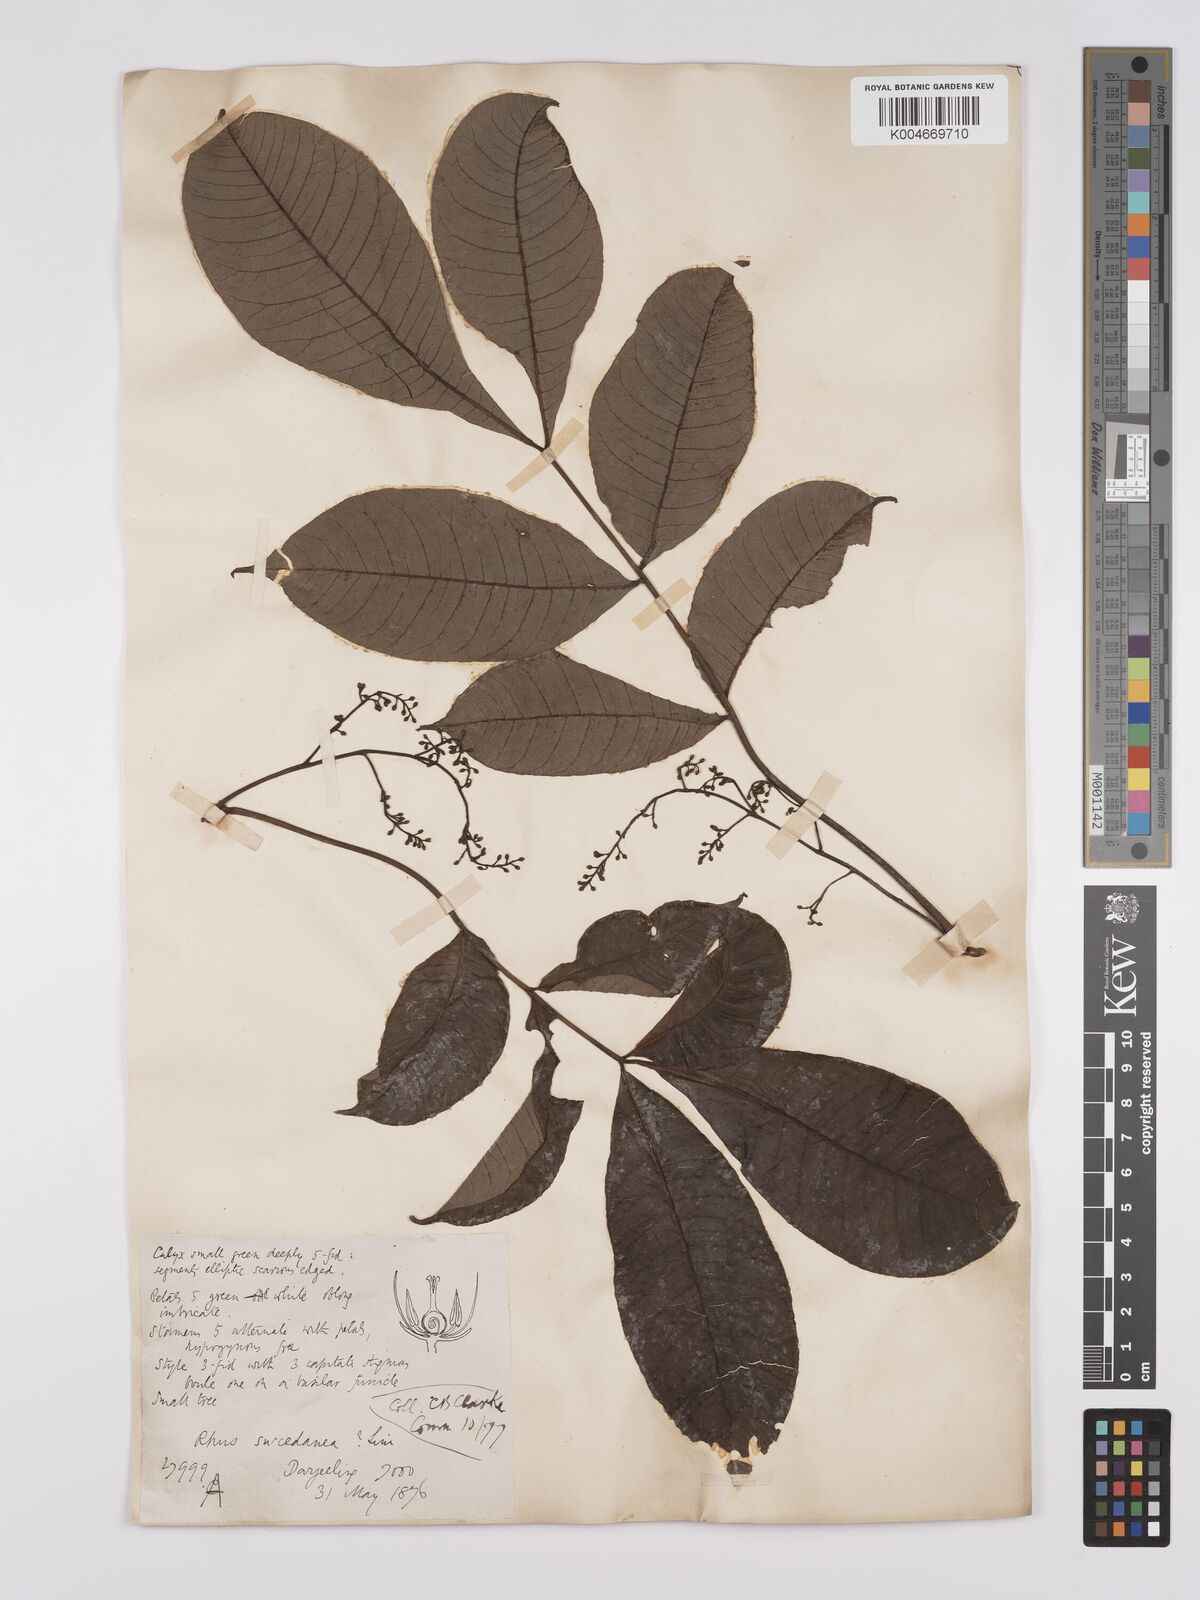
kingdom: Plantae
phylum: Tracheophyta
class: Magnoliopsida
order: Sapindales
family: Anacardiaceae
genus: Toxicodendron
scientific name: Toxicodendron succedaneum
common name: Wax tree
